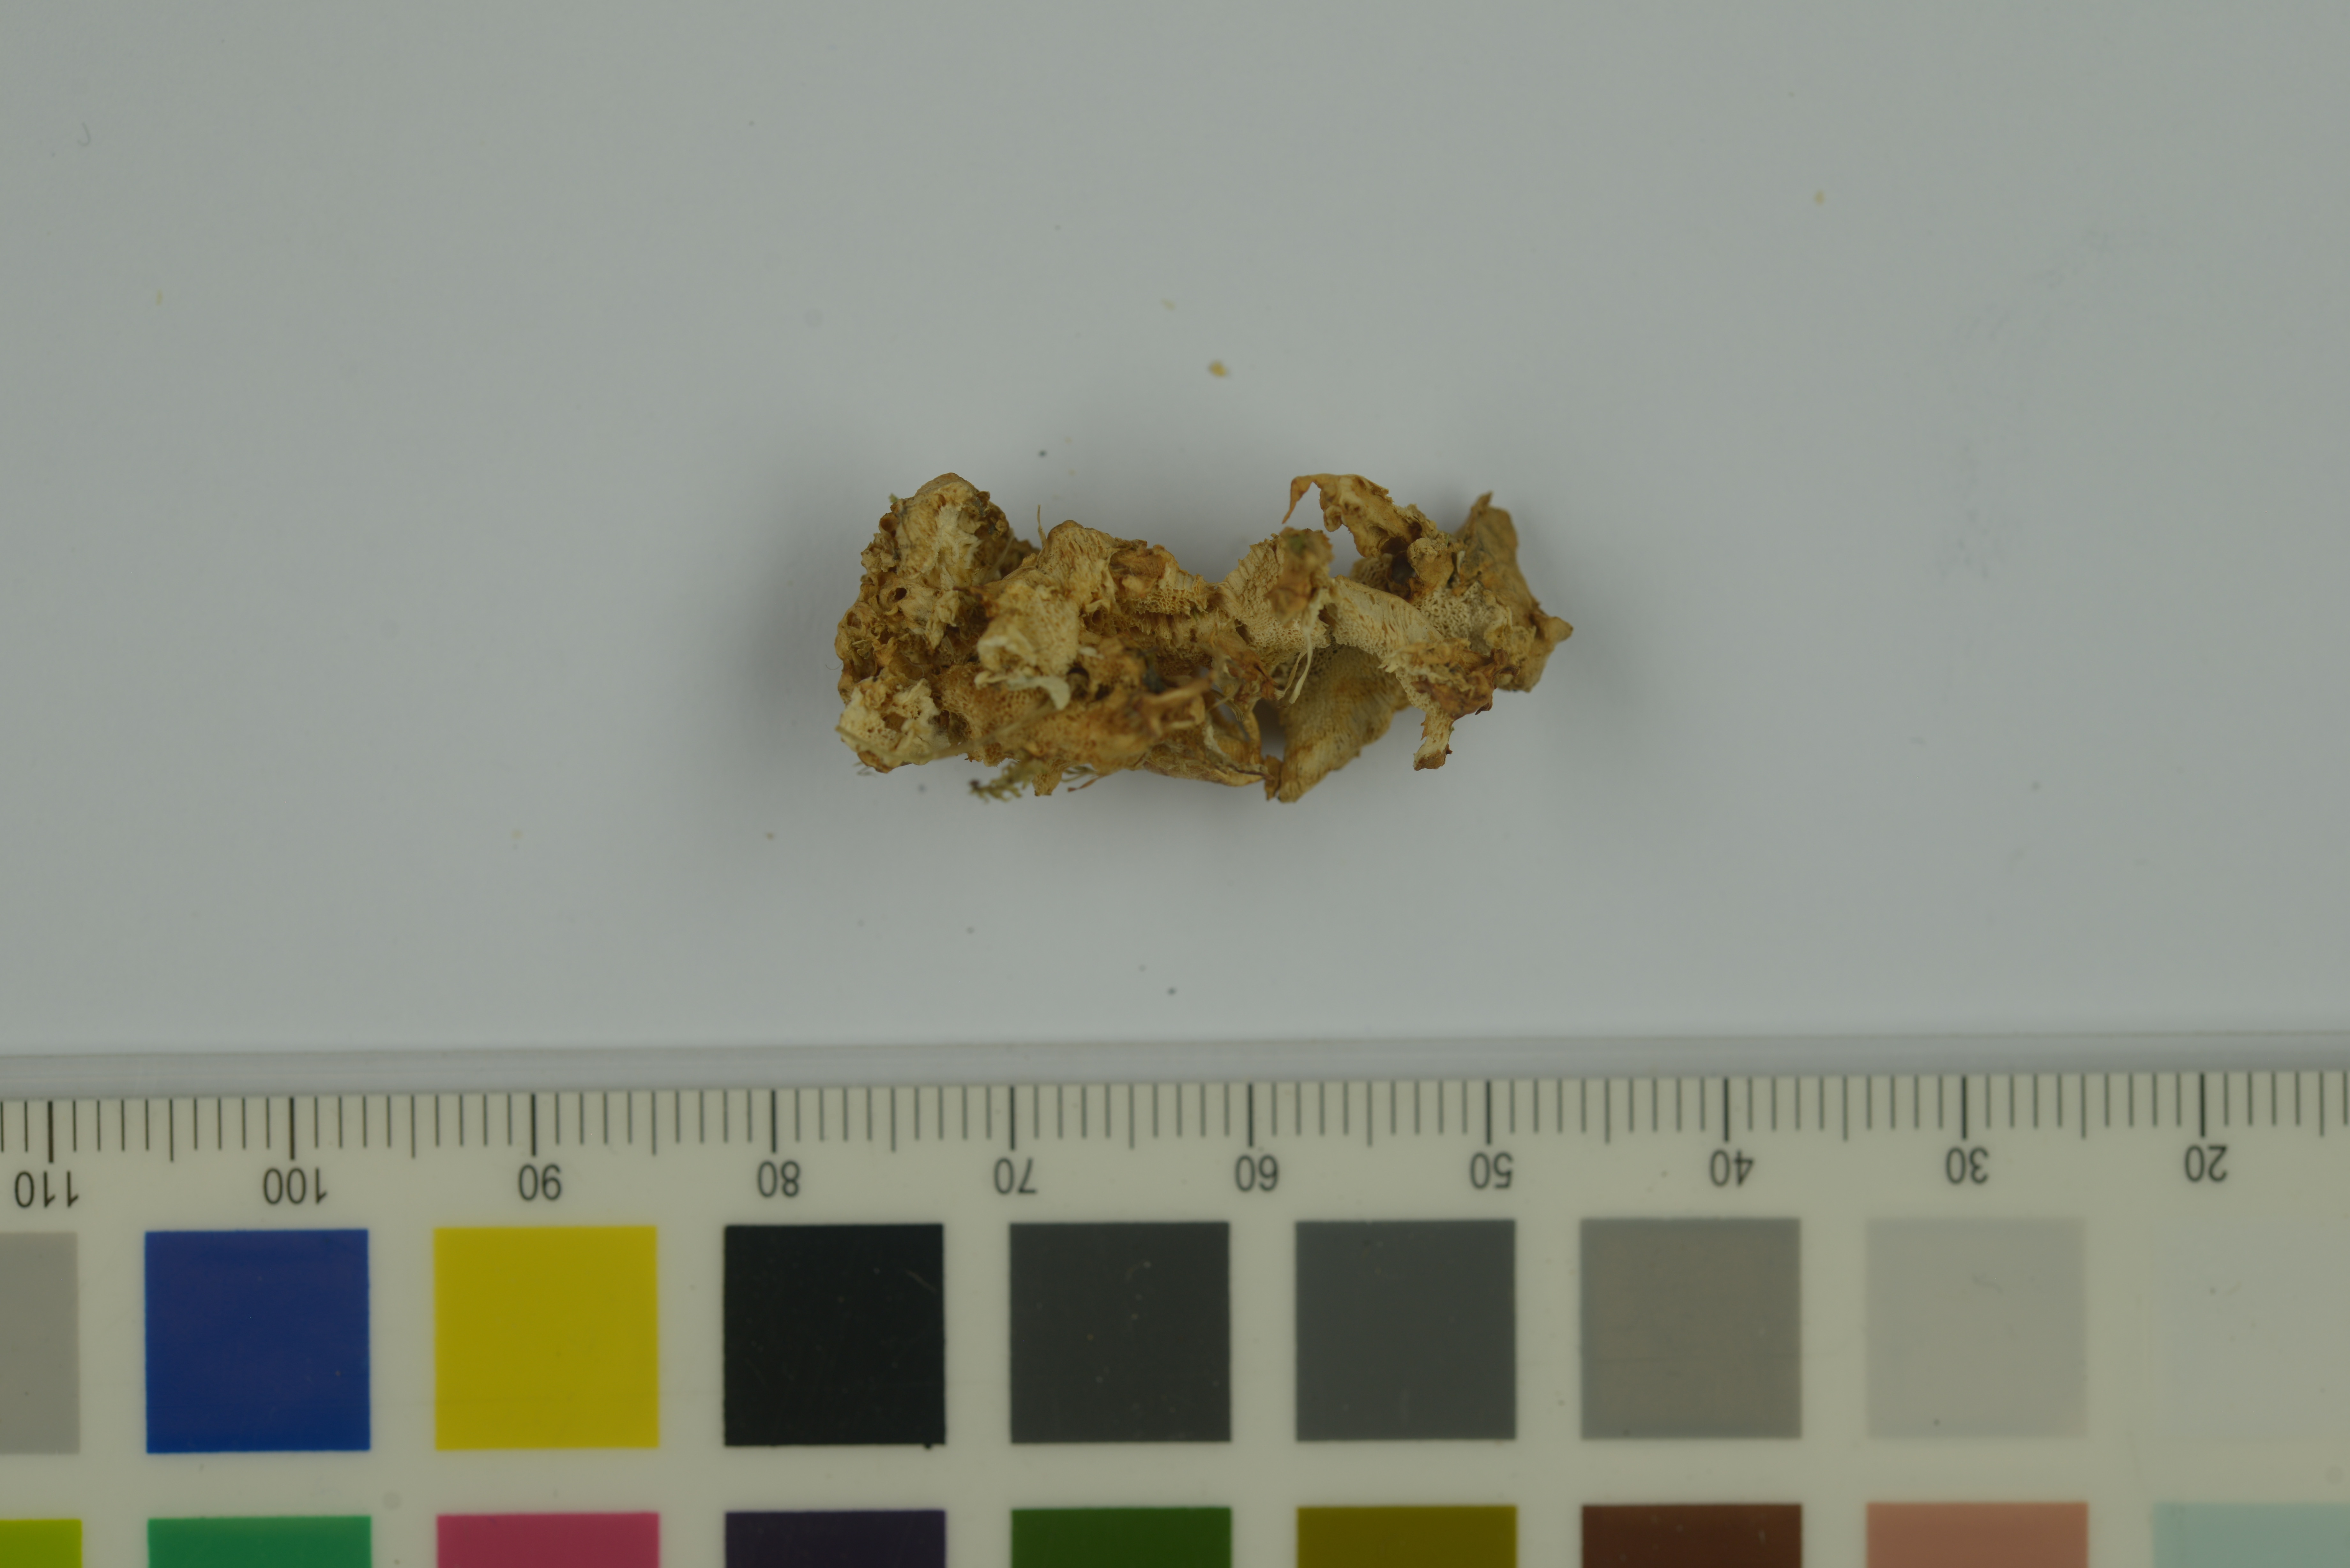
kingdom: Fungi
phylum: Basidiomycota
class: Agaricomycetes
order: Polyporales
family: Podoscyphaceae
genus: Abortiporus
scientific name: Abortiporus biennis
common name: Blushing rosette
